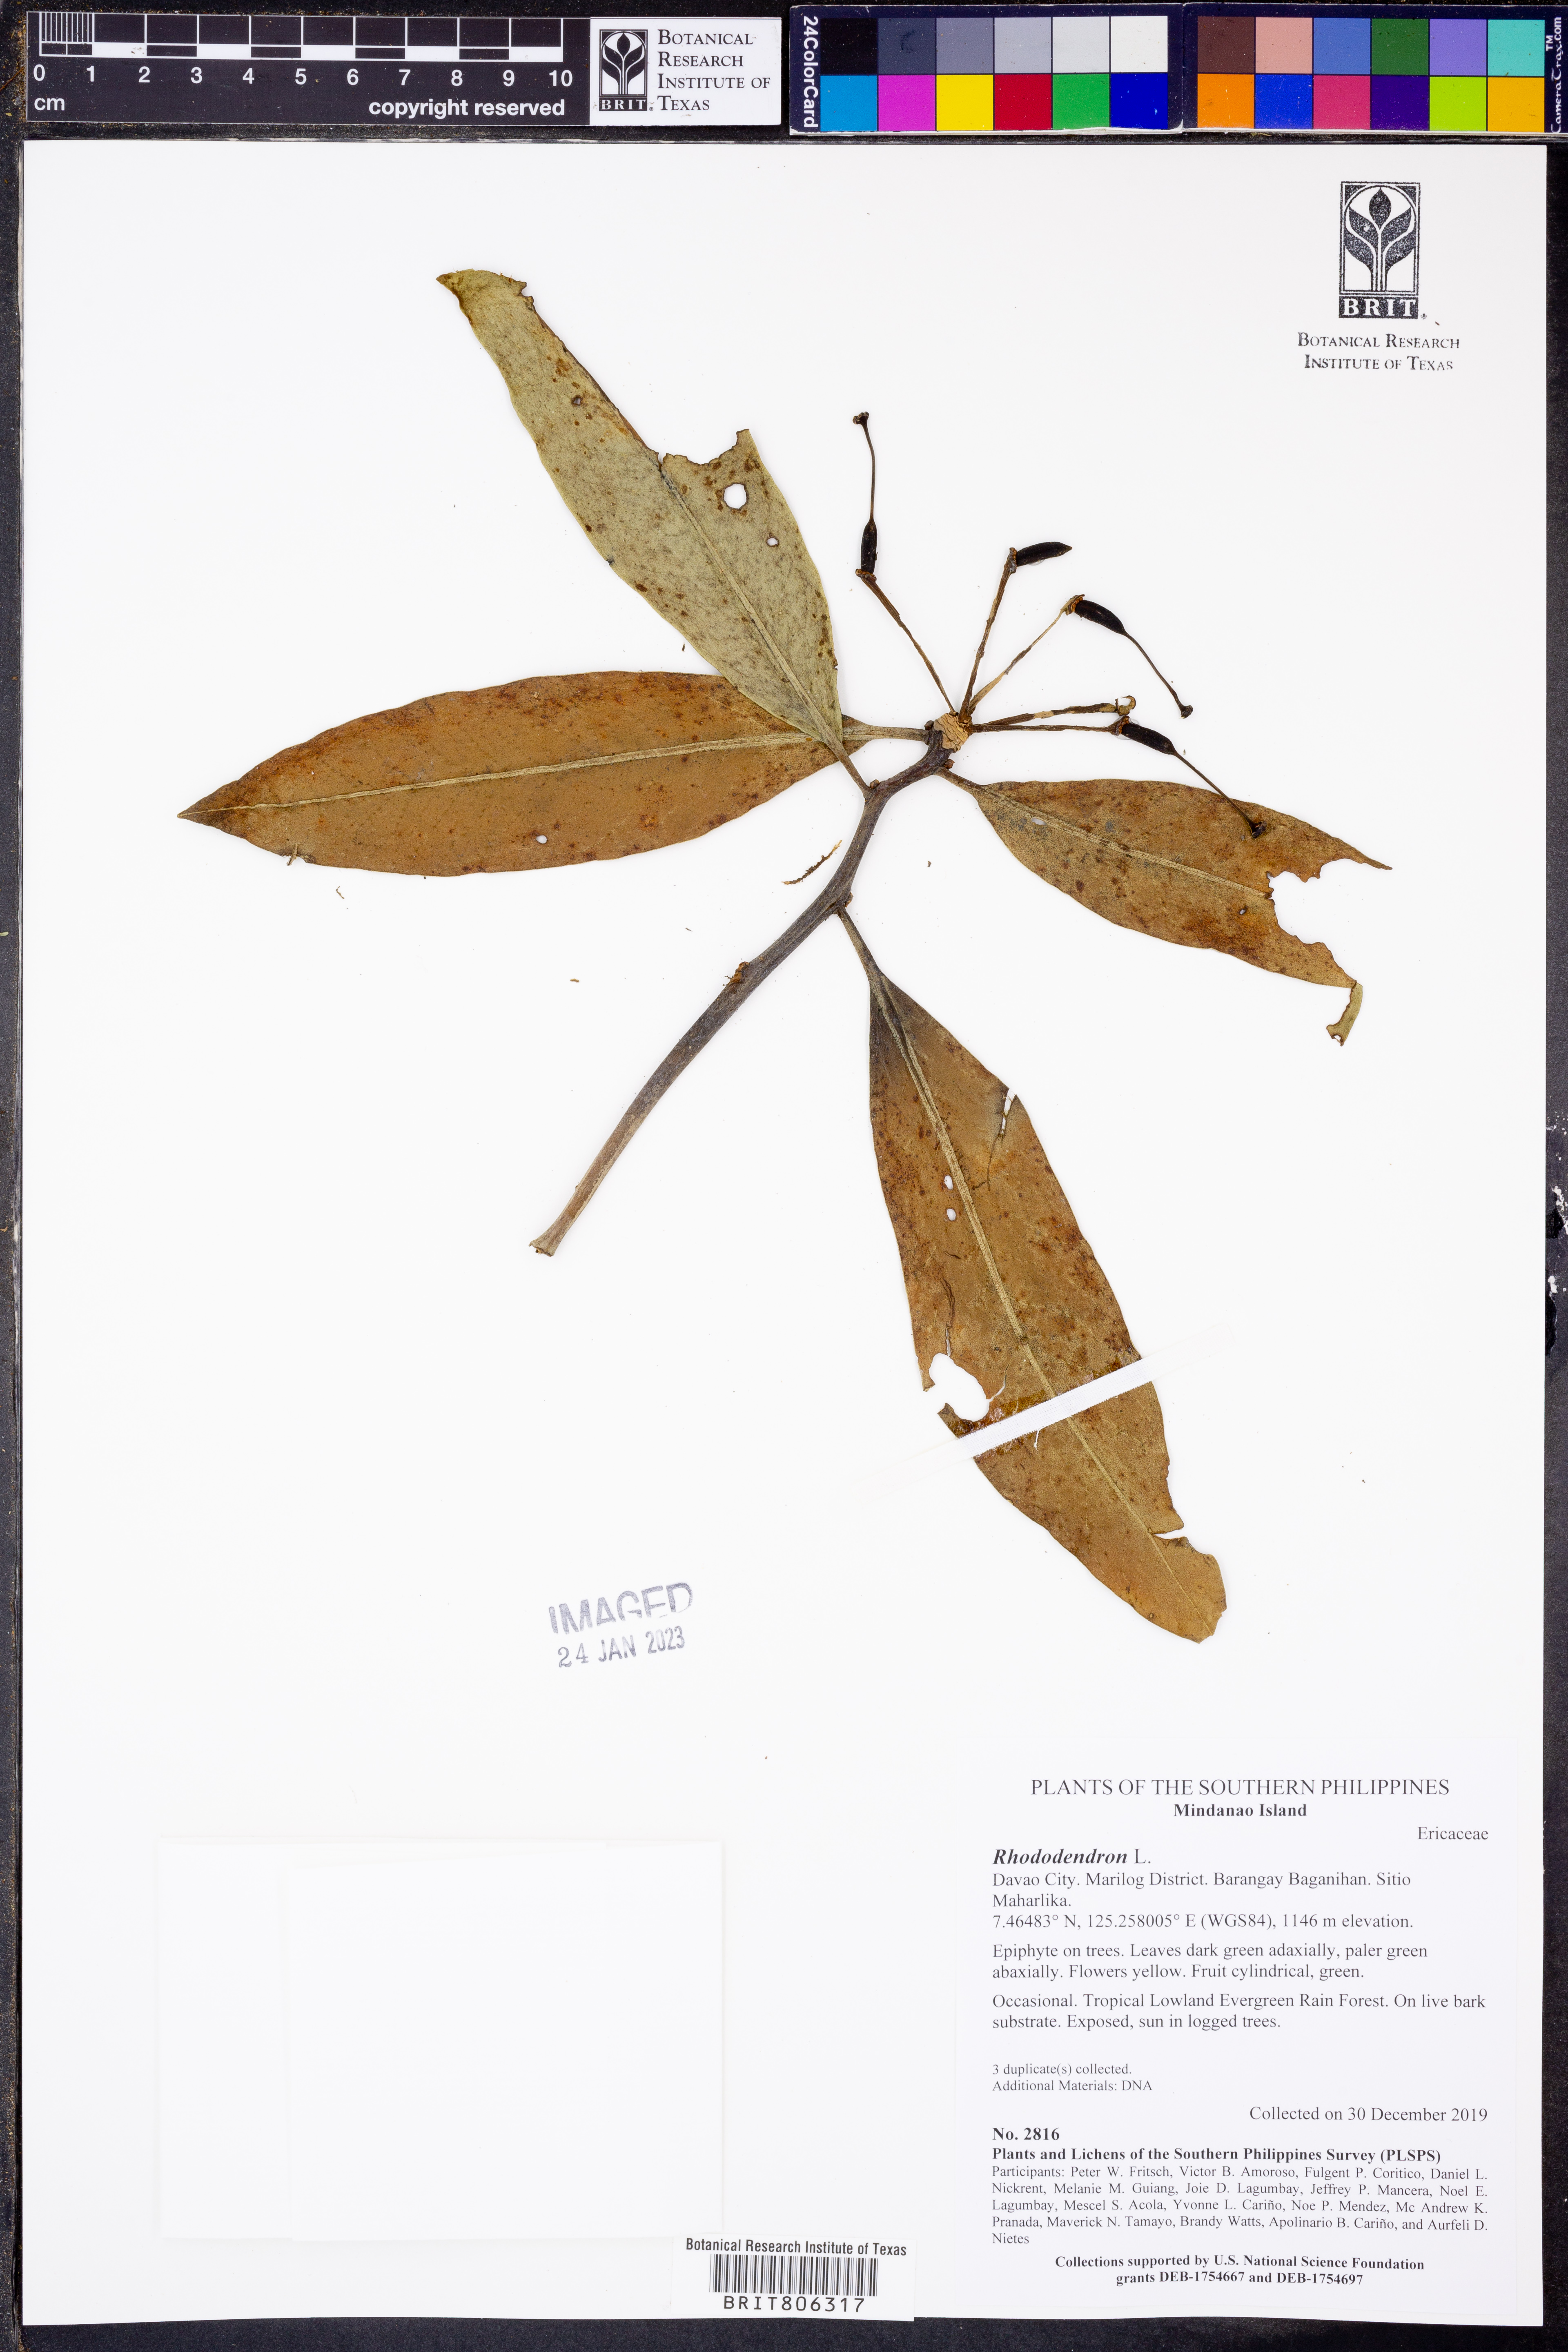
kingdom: Plantae
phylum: Tracheophyta
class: Magnoliopsida
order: Ericales
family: Ericaceae
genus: Rhododendron
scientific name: Rhododendron
